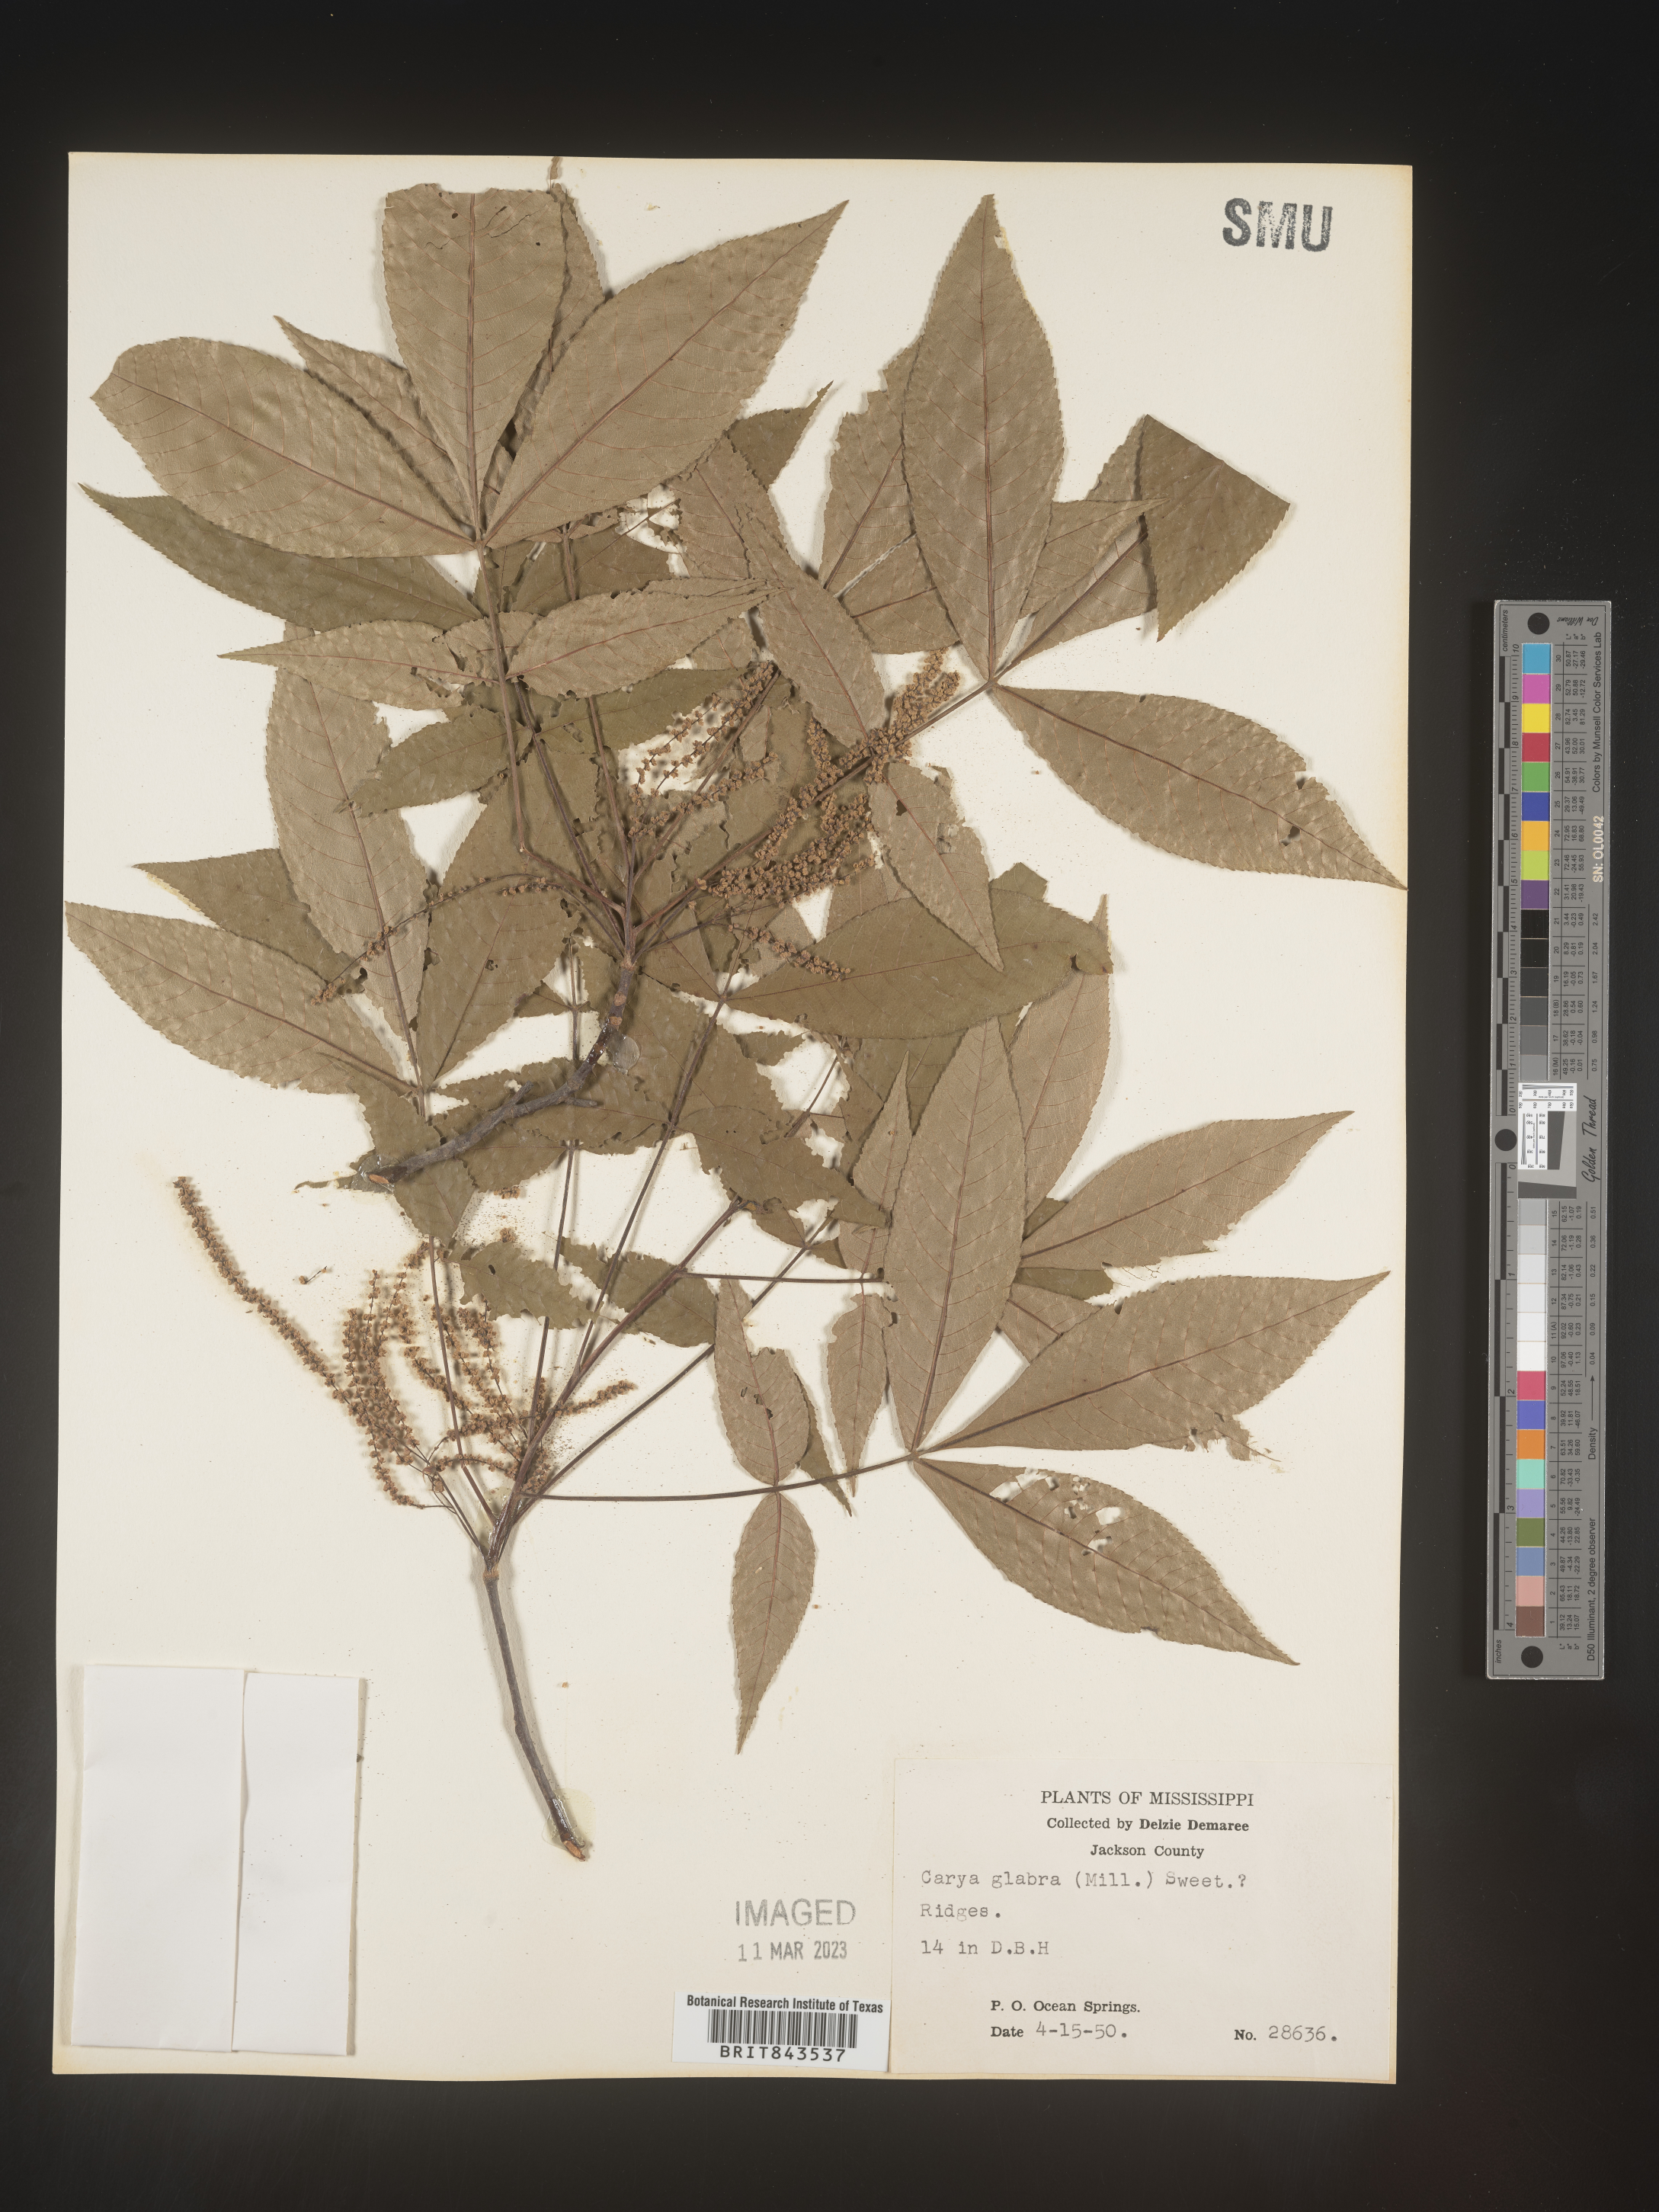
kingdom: Plantae
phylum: Tracheophyta
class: Magnoliopsida
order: Fagales
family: Juglandaceae
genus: Carya
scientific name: Carya glabra
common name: Pignut hickory
